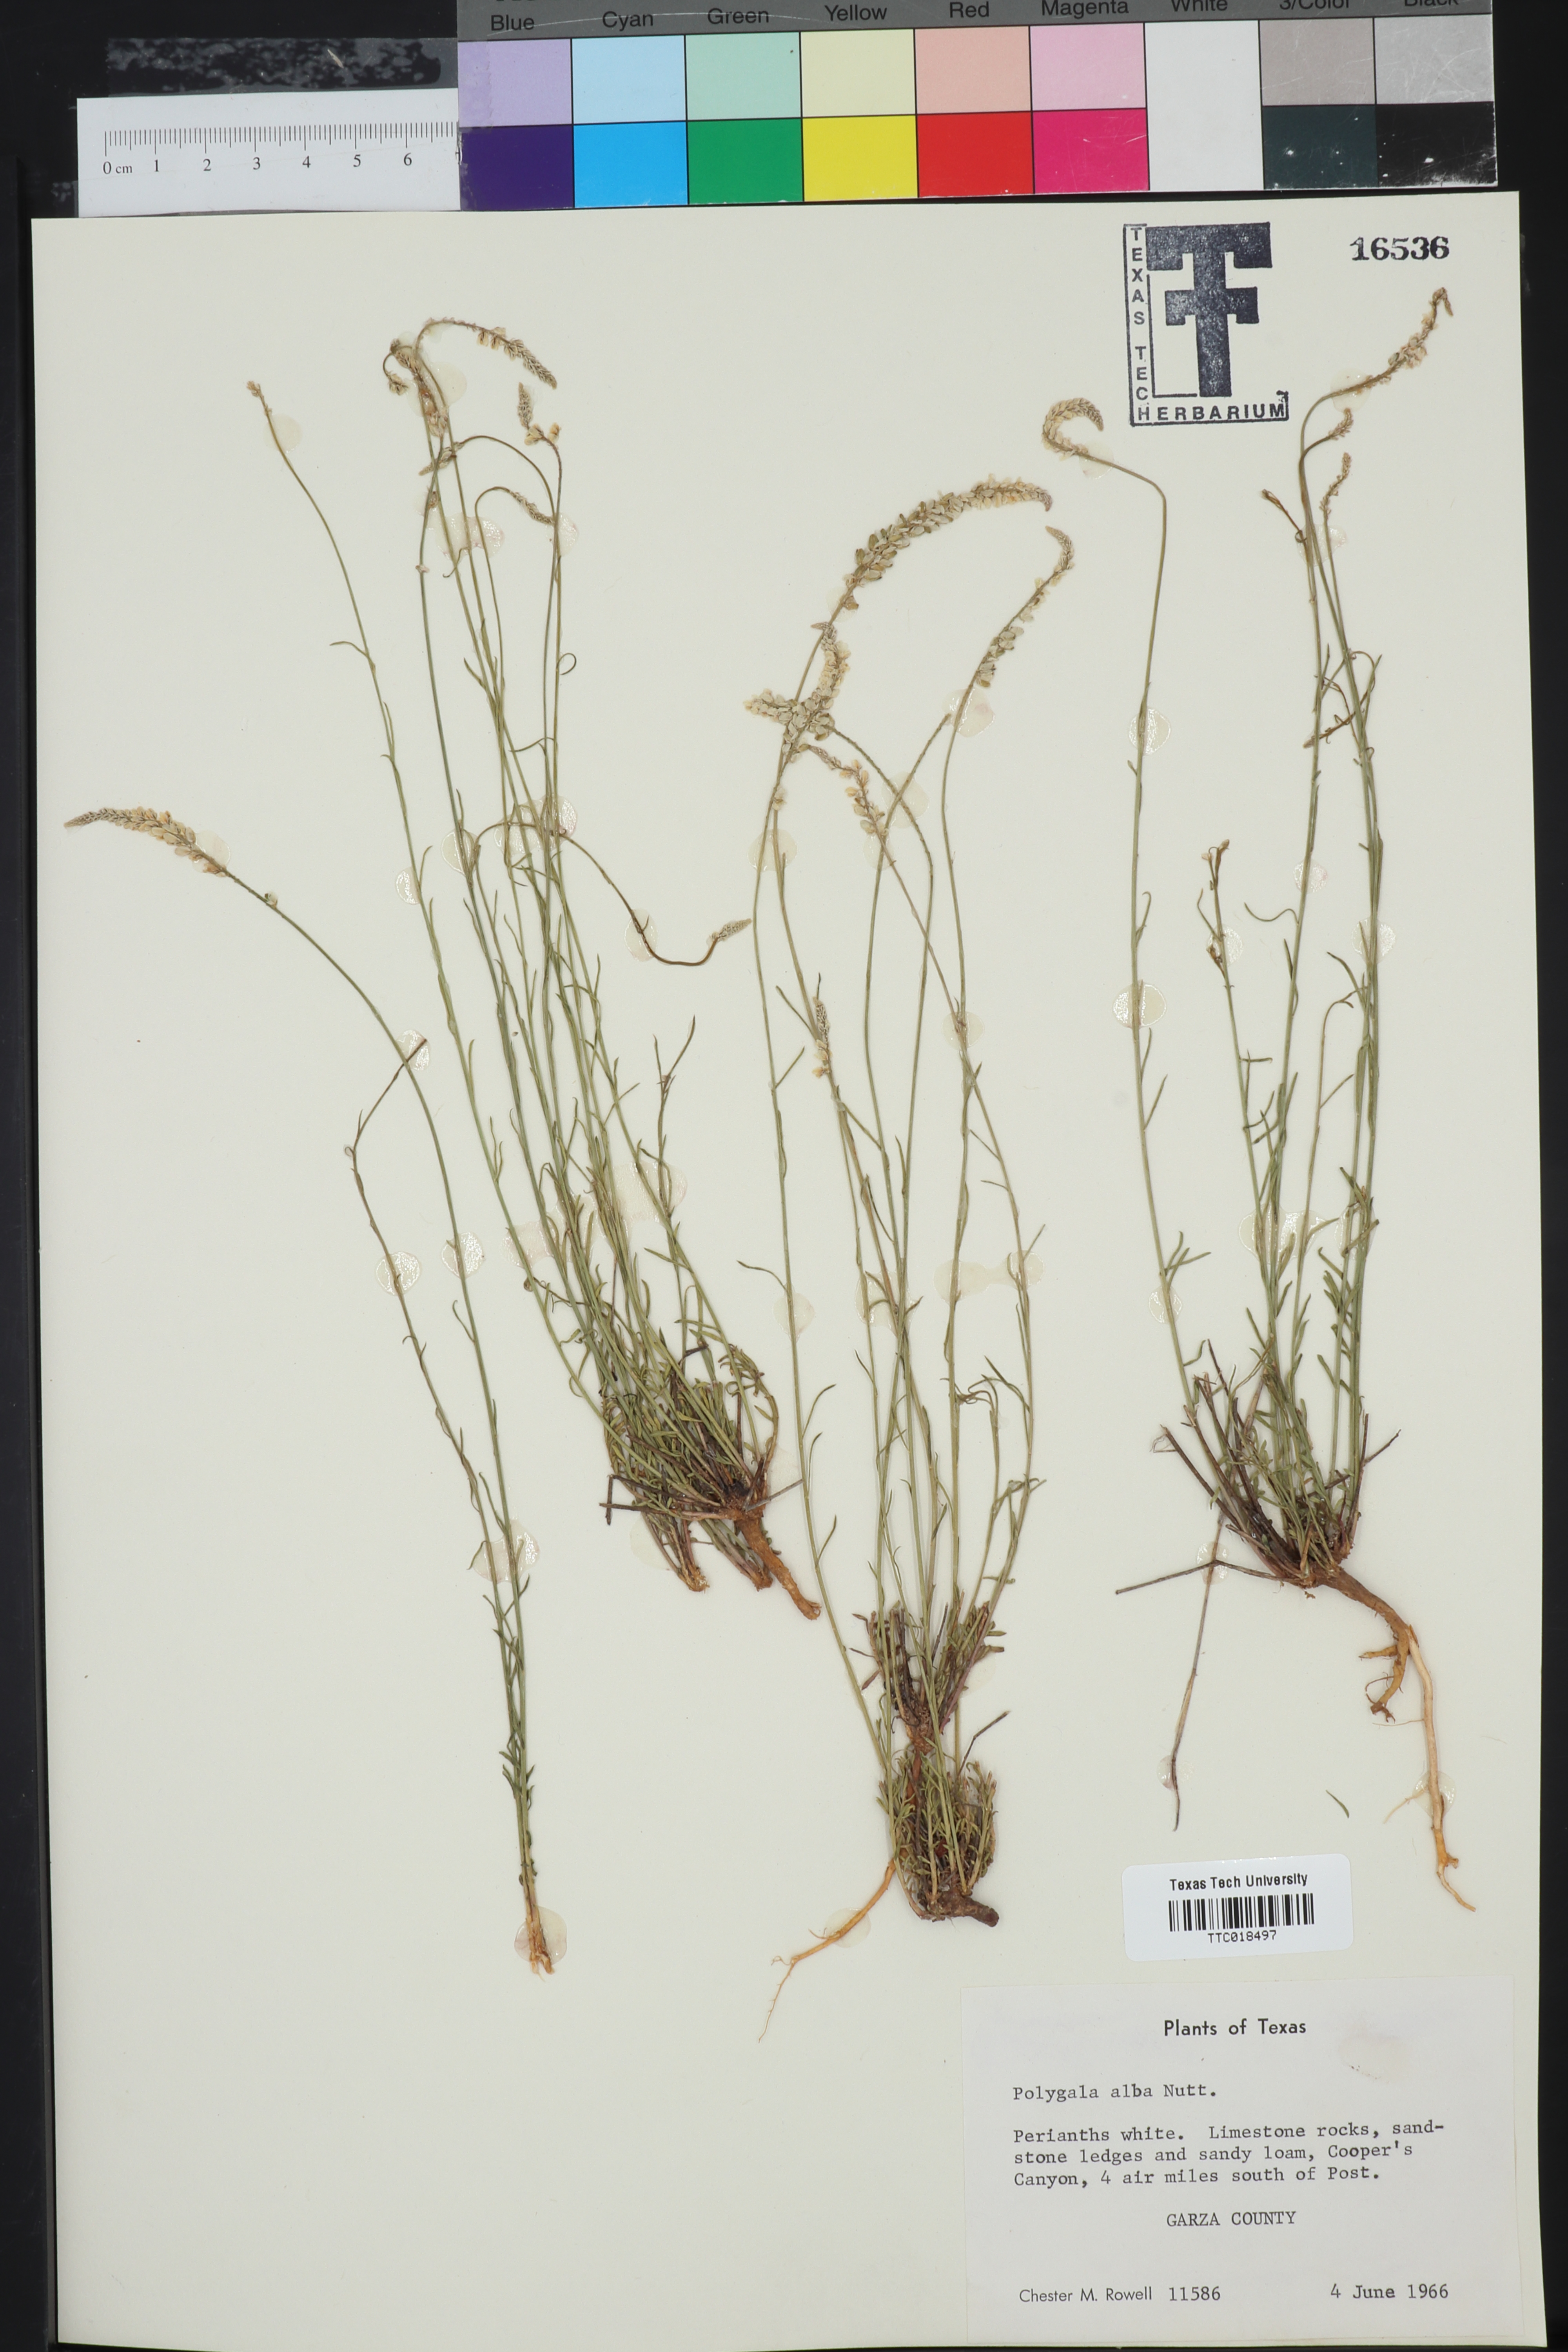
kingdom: Plantae
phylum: Tracheophyta
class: Magnoliopsida
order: Fabales
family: Polygalaceae
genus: Polygala
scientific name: Polygala alba
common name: White milkwort
